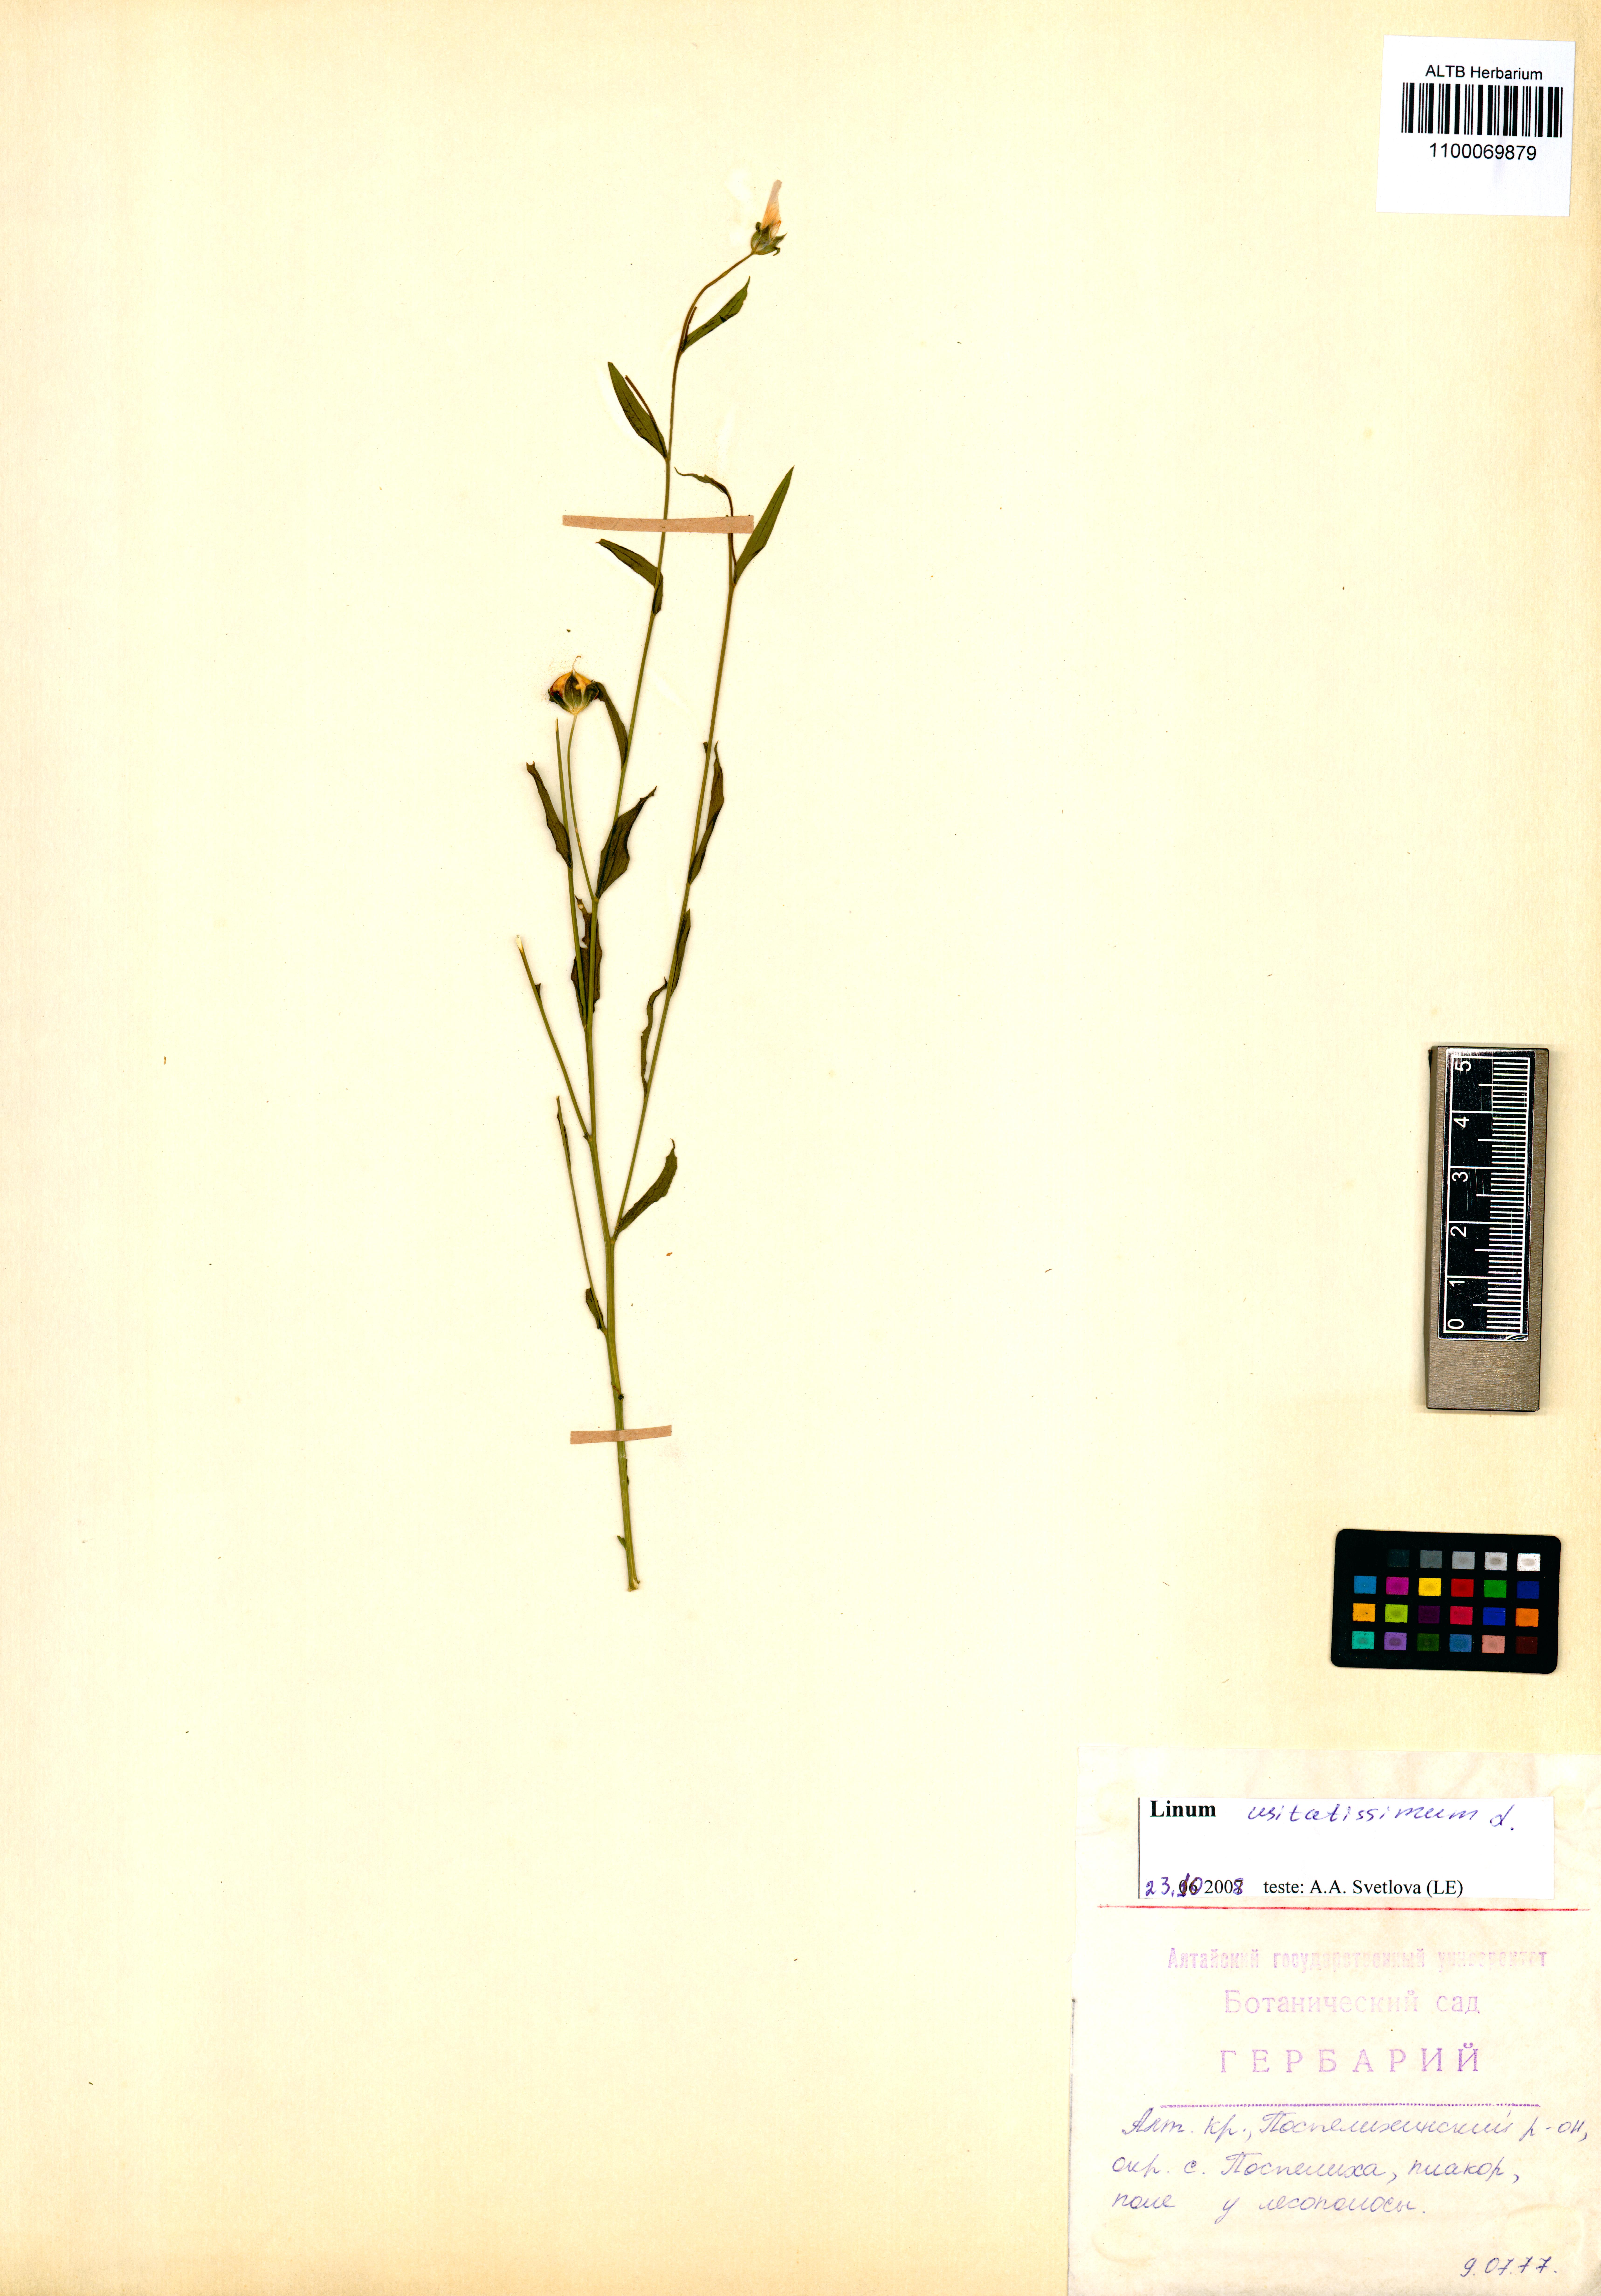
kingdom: Plantae
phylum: Tracheophyta
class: Magnoliopsida
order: Malpighiales
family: Linaceae
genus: Linum
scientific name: Linum usitatissimum
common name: Flax
